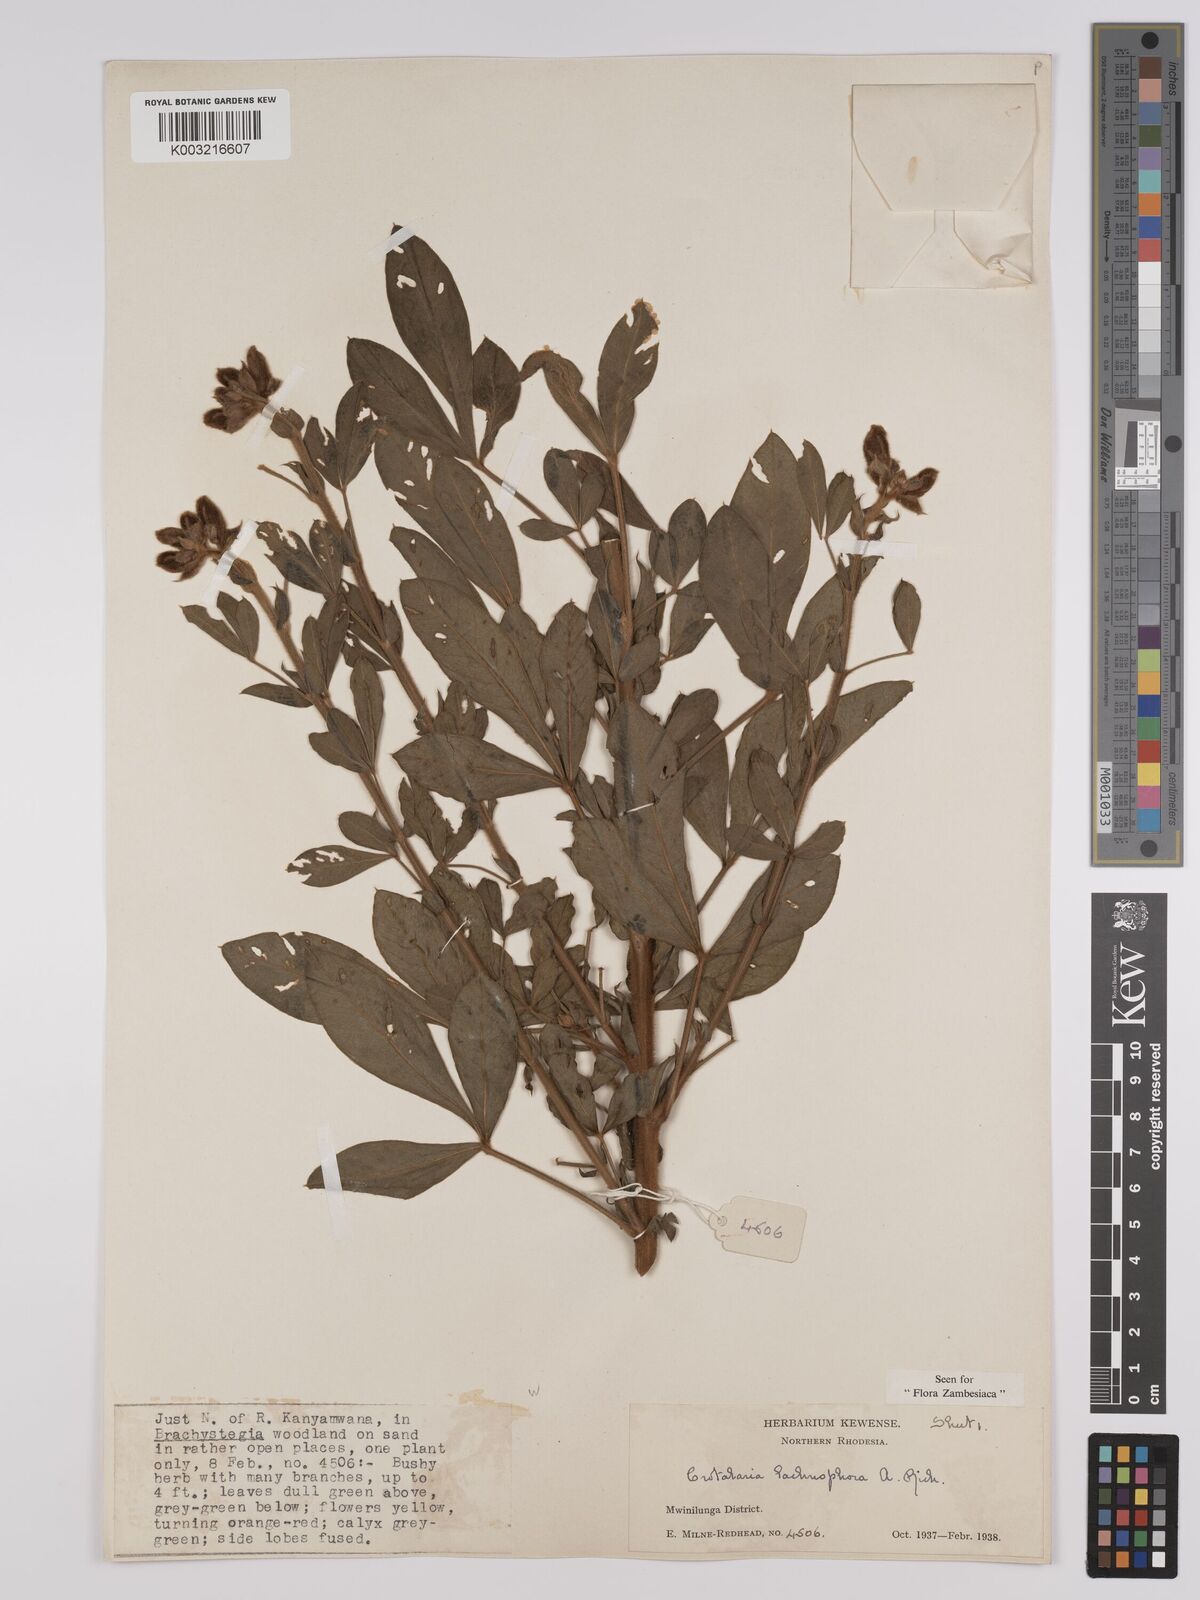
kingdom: Plantae
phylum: Tracheophyta
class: Magnoliopsida
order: Fabales
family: Fabaceae
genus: Crotalaria
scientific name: Crotalaria lachnophora
